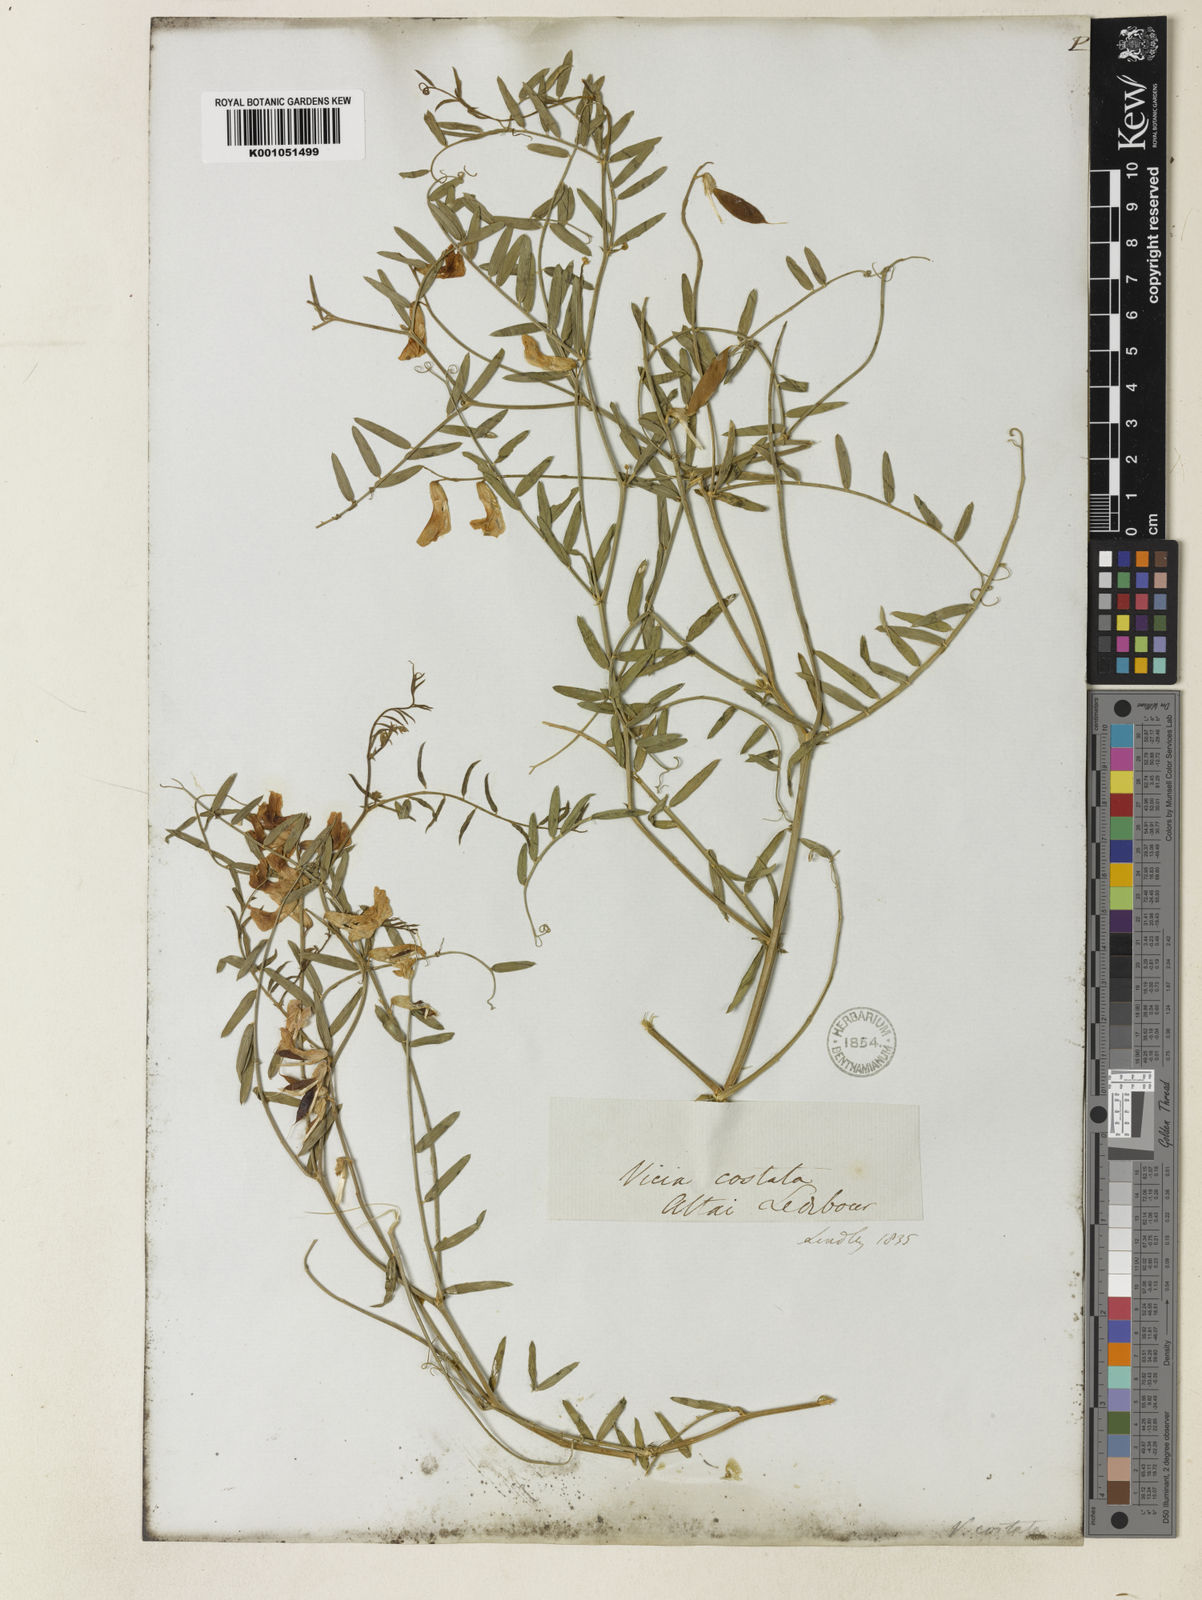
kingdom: Plantae
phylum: Tracheophyta
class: Magnoliopsida
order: Fabales
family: Fabaceae
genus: Vicia
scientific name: Vicia costata
